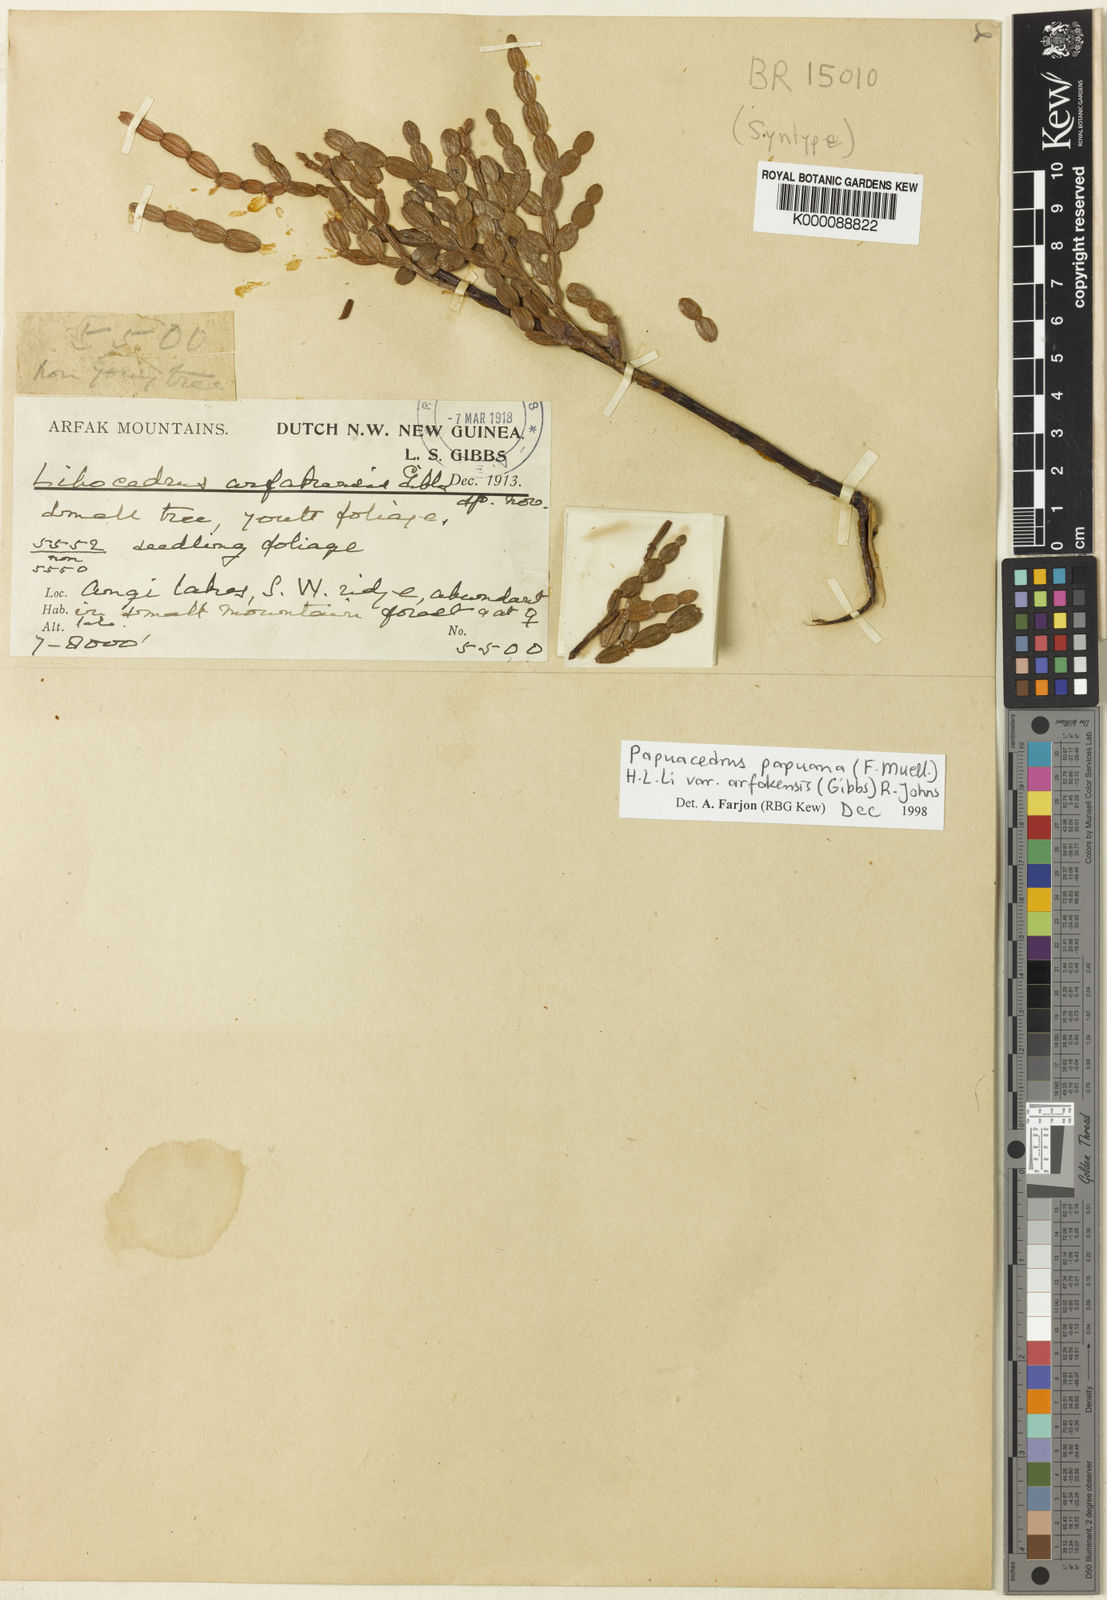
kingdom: Plantae
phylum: Tracheophyta
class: Pinopsida
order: Pinales
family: Cupressaceae
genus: Papuacedrus
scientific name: Papuacedrus papuana
